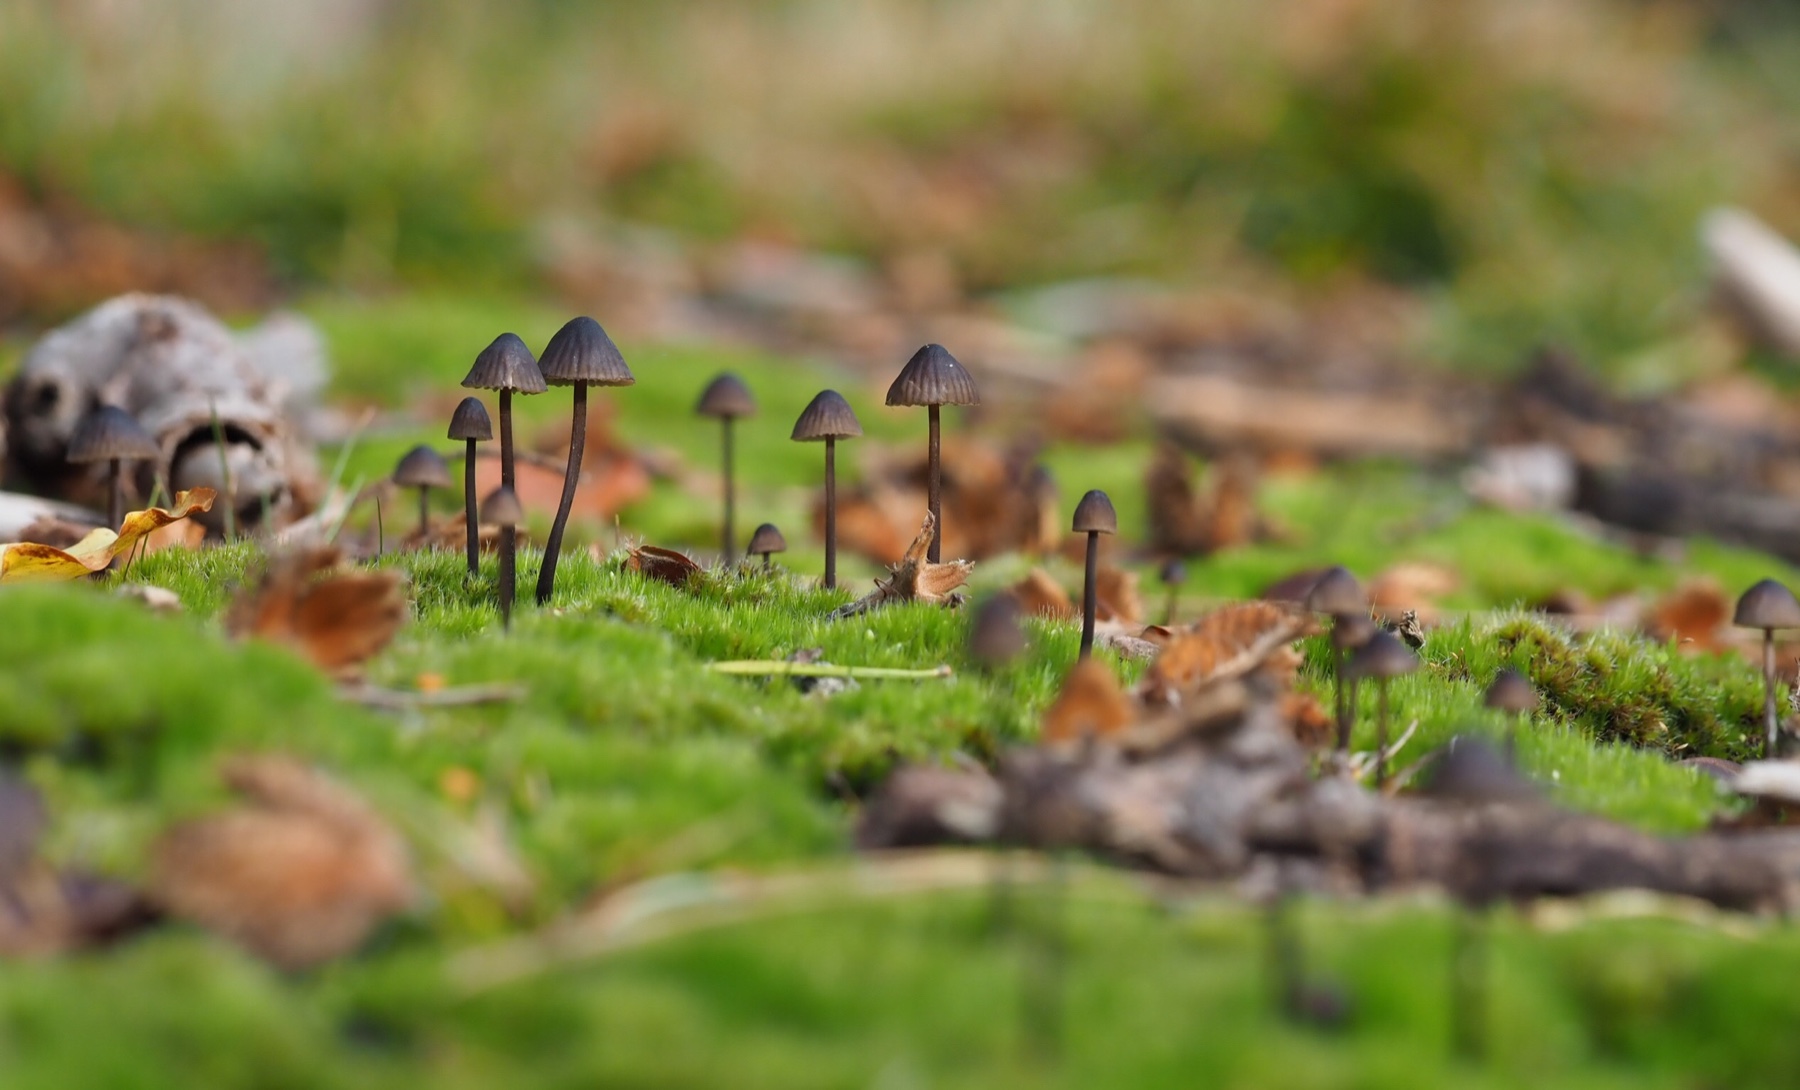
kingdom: Fungi
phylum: Basidiomycota
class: Agaricomycetes
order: Agaricales
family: Mycenaceae
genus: Mycena
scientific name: Mycena galopus
